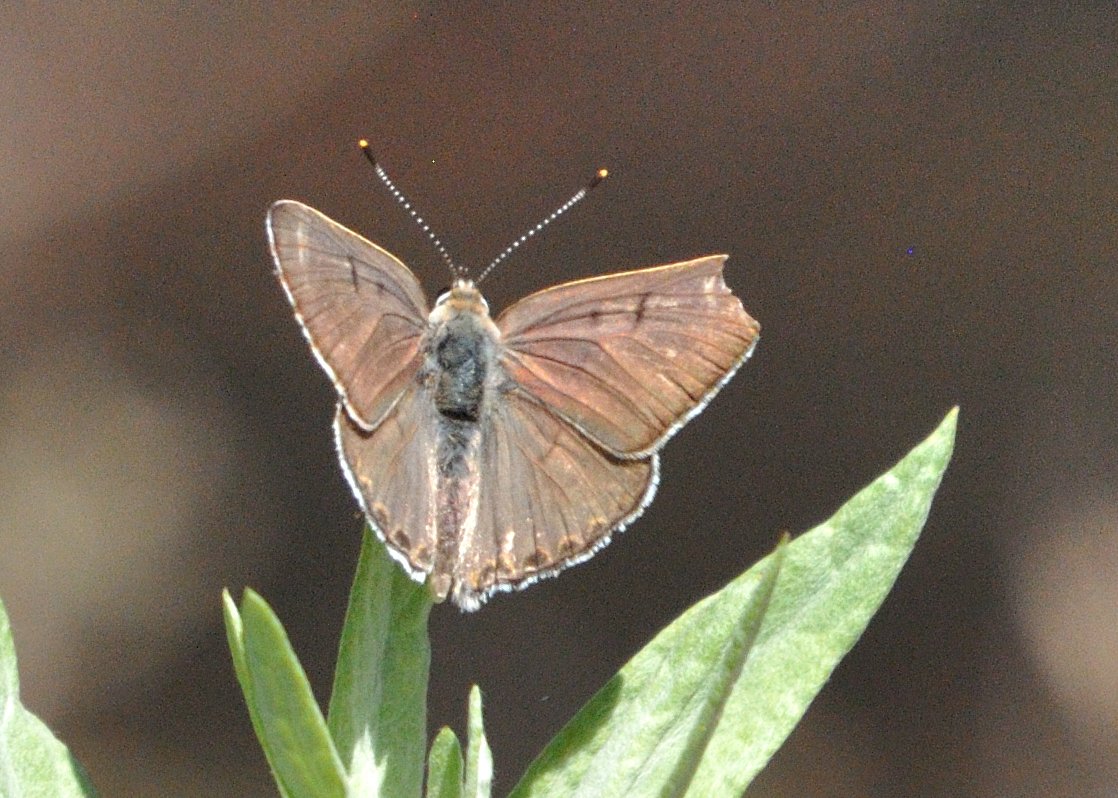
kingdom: Animalia
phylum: Arthropoda
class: Insecta
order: Lepidoptera
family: Lycaenidae
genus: Lycaena
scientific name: Lycaena xanthoides
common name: Great Copper
